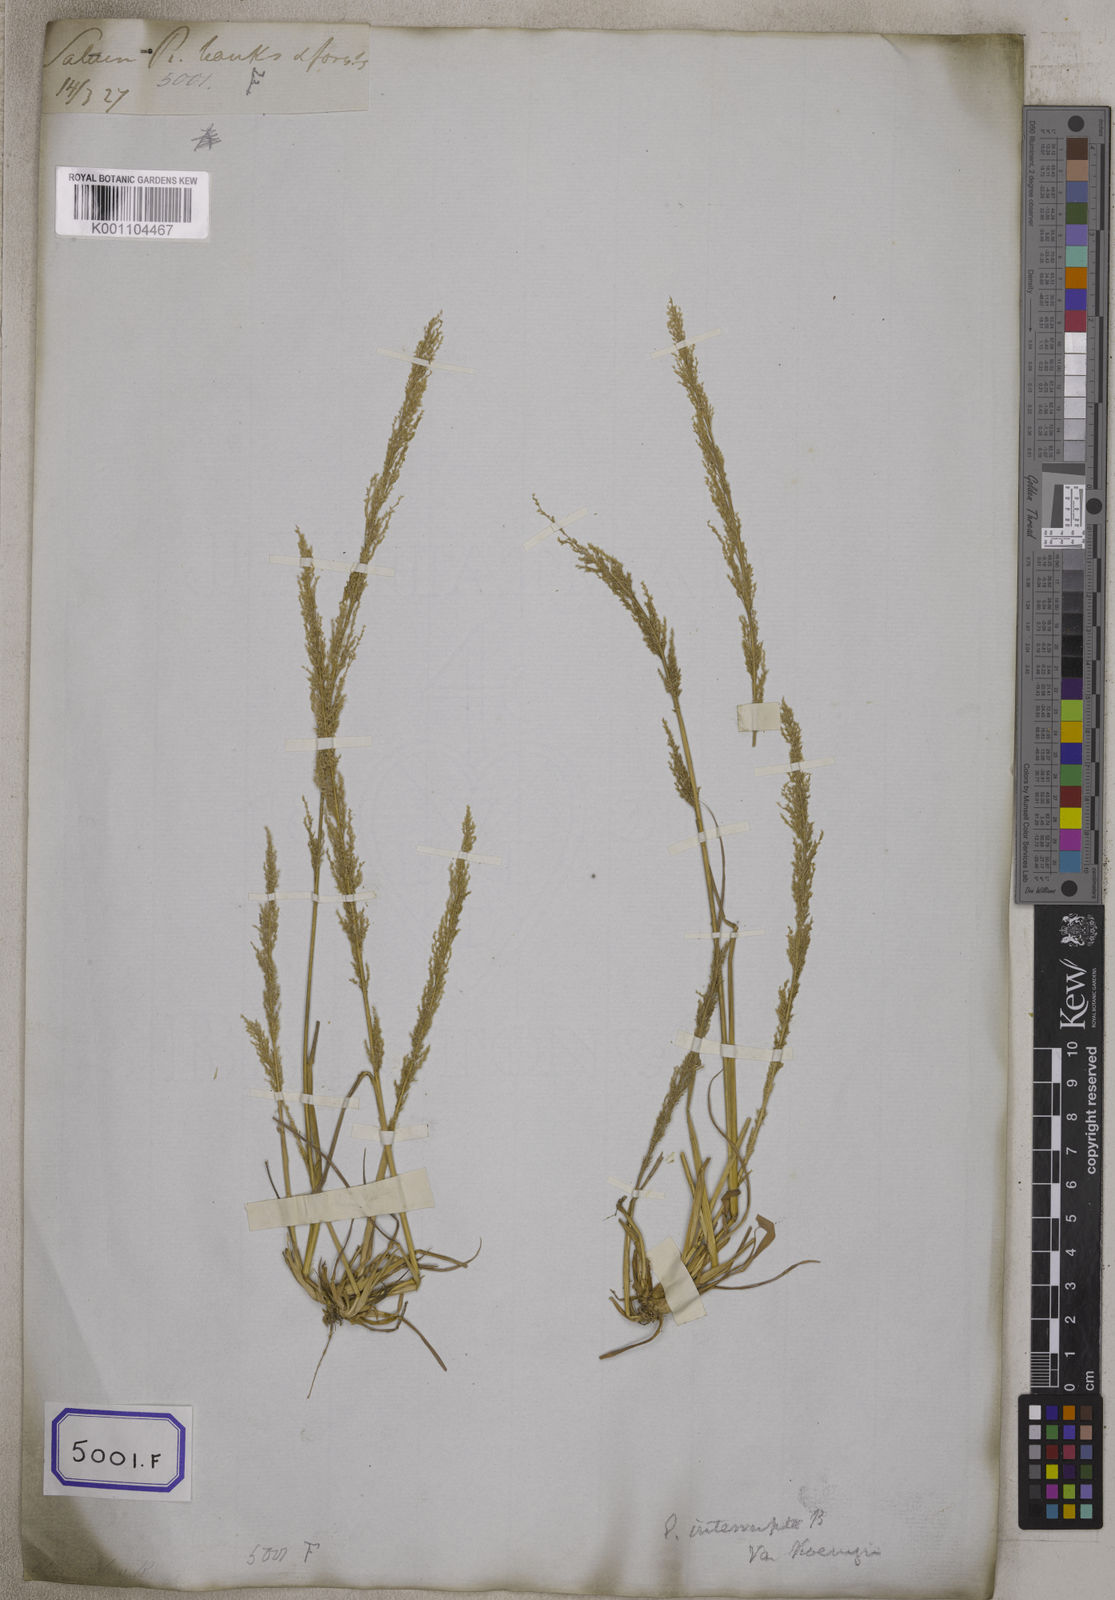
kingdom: Plantae
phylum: Tracheophyta
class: Liliopsida
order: Poales
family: Poaceae
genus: Eragrostis
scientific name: Eragrostis
